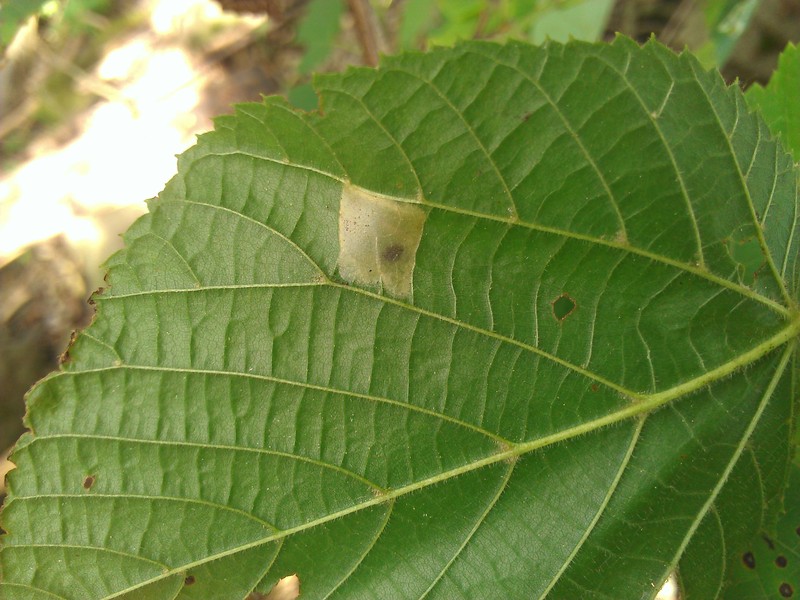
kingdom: Animalia
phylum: Arthropoda
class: Insecta
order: Lepidoptera
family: Gracillariidae
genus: Phyllonorycter
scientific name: Phyllonorycter
